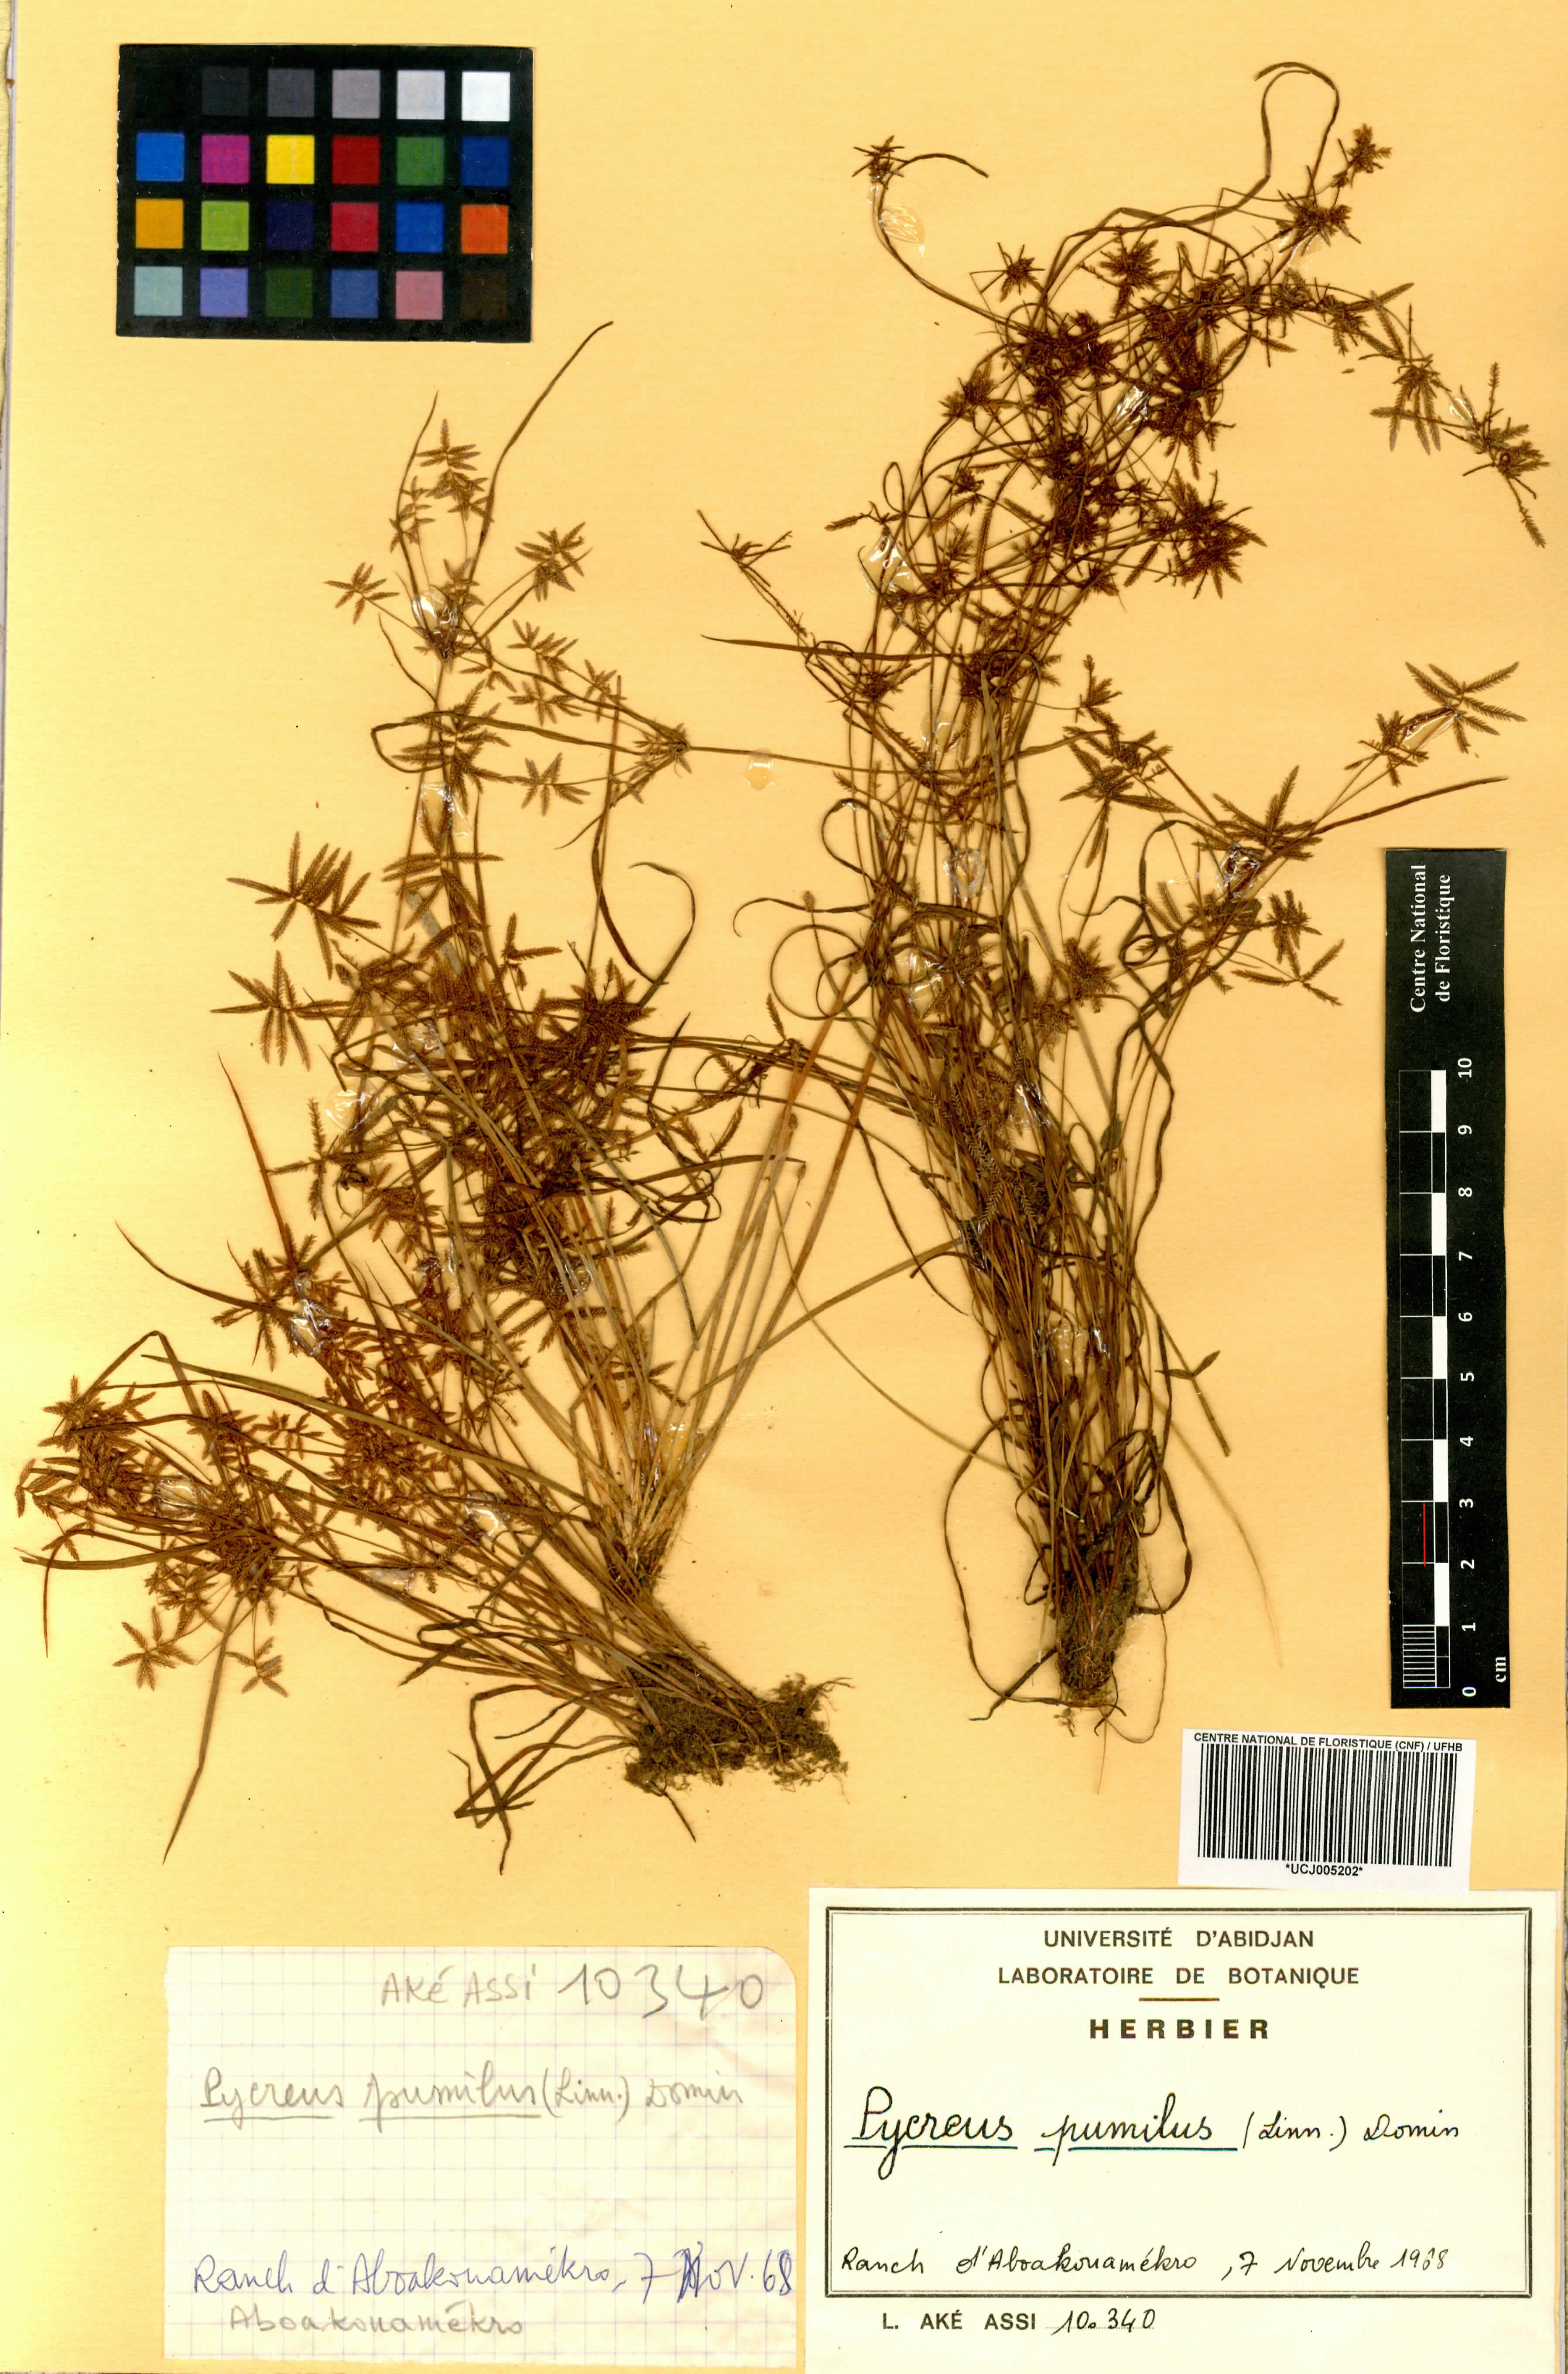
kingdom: Plantae
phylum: Tracheophyta
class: Liliopsida
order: Poales
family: Cyperaceae
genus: Cyperus
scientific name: Cyperus pumilus
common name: Low flatsedge
